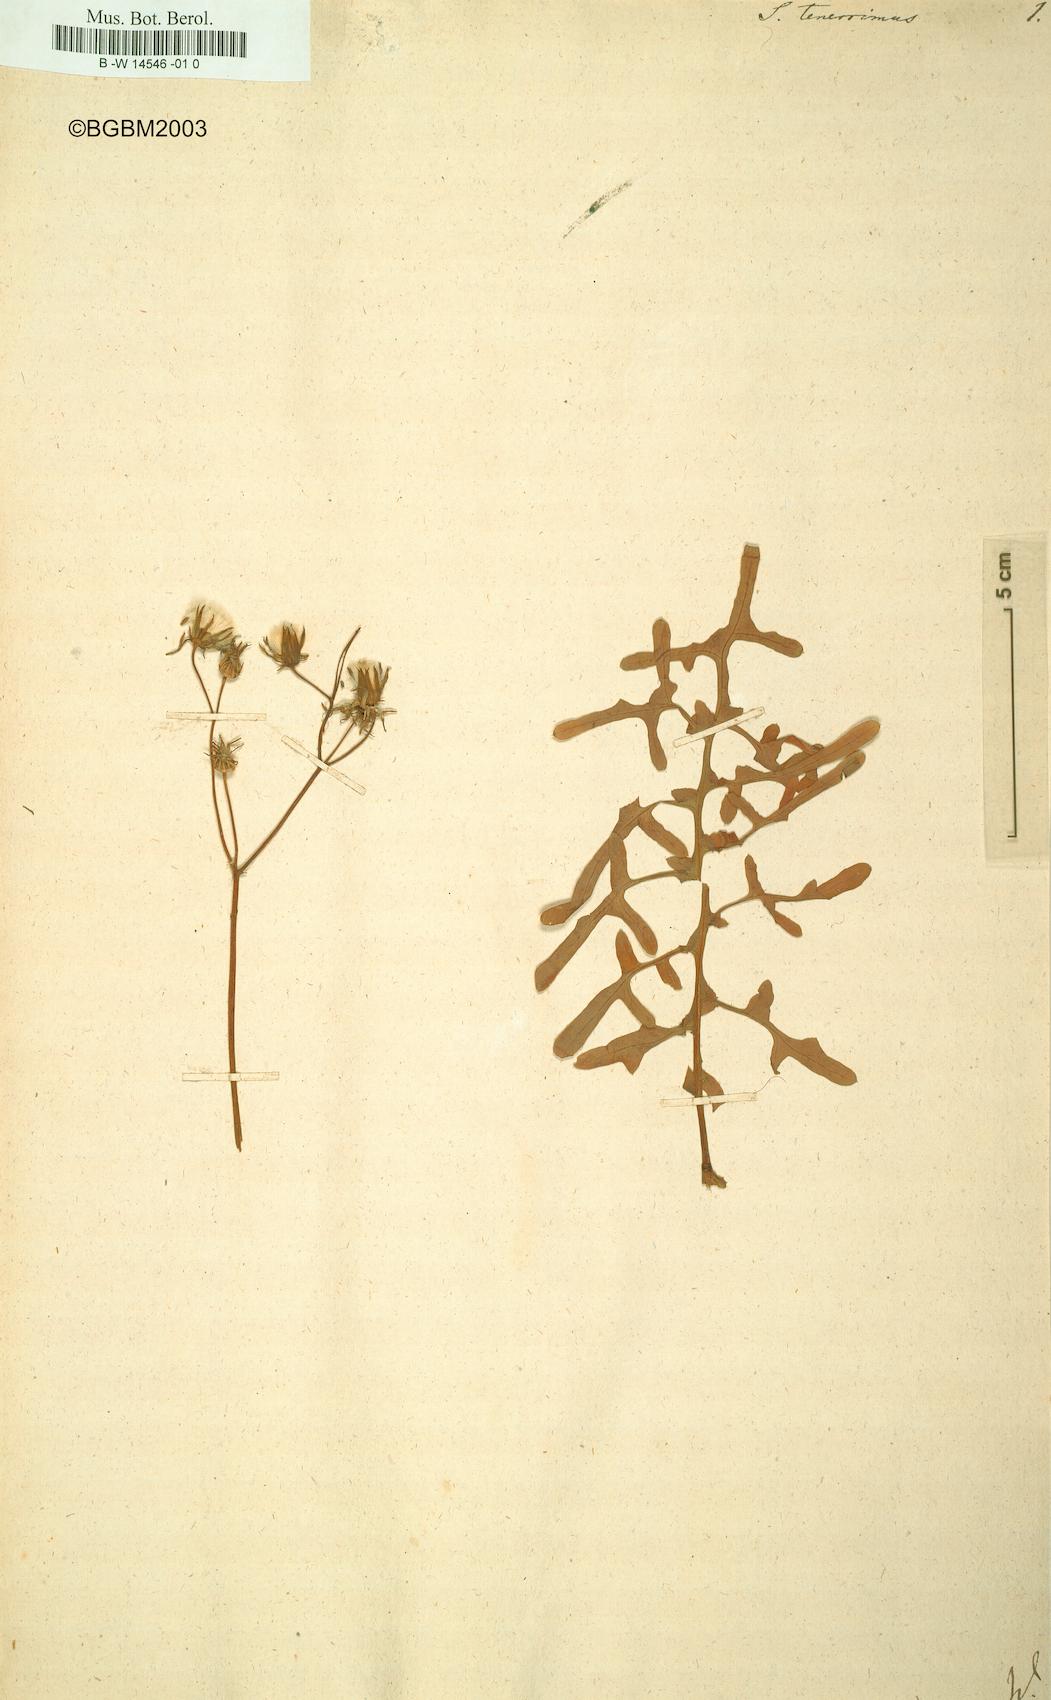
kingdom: Plantae
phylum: Tracheophyta
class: Magnoliopsida
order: Asterales
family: Asteraceae
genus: Sonchus
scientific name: Sonchus tenerrimus
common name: Clammy sowthistle
